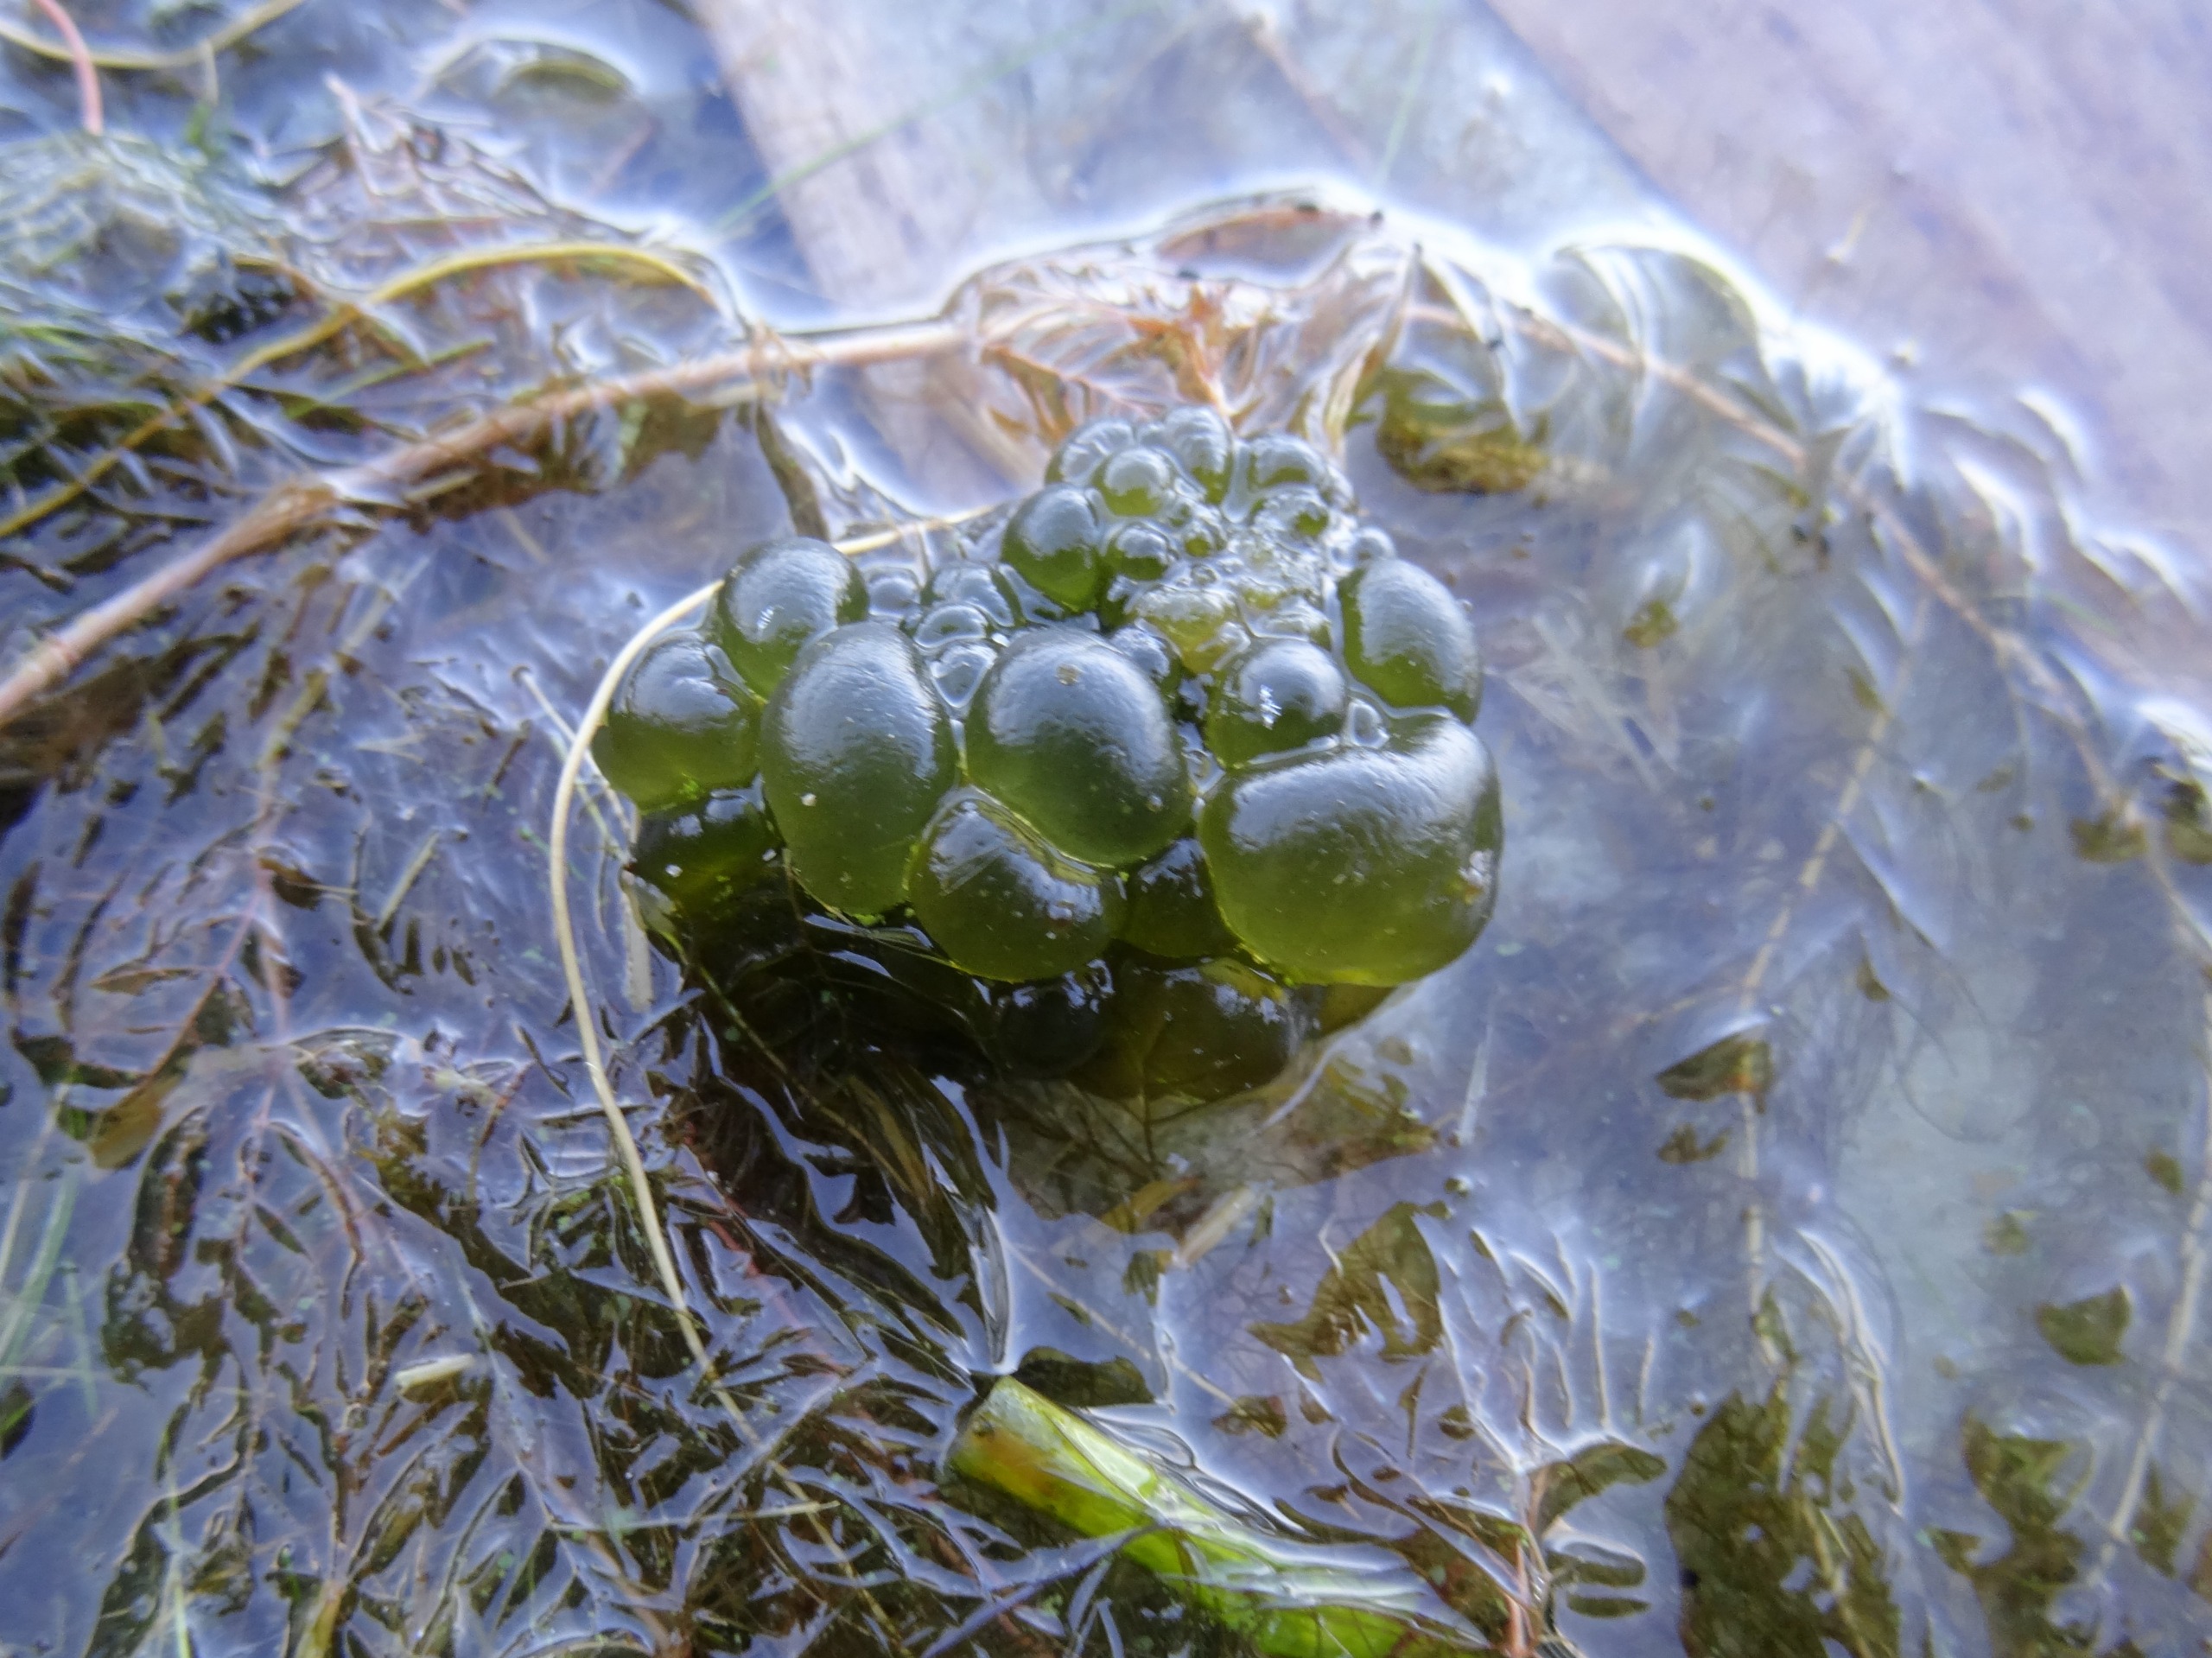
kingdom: Bacteria
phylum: Cyanobacteria
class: Cyanobacteriia
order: Cyanobacteriales
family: Nostocaceae
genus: Nostoc
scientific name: Nostoc zetterstedtii
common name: Søbrombær
